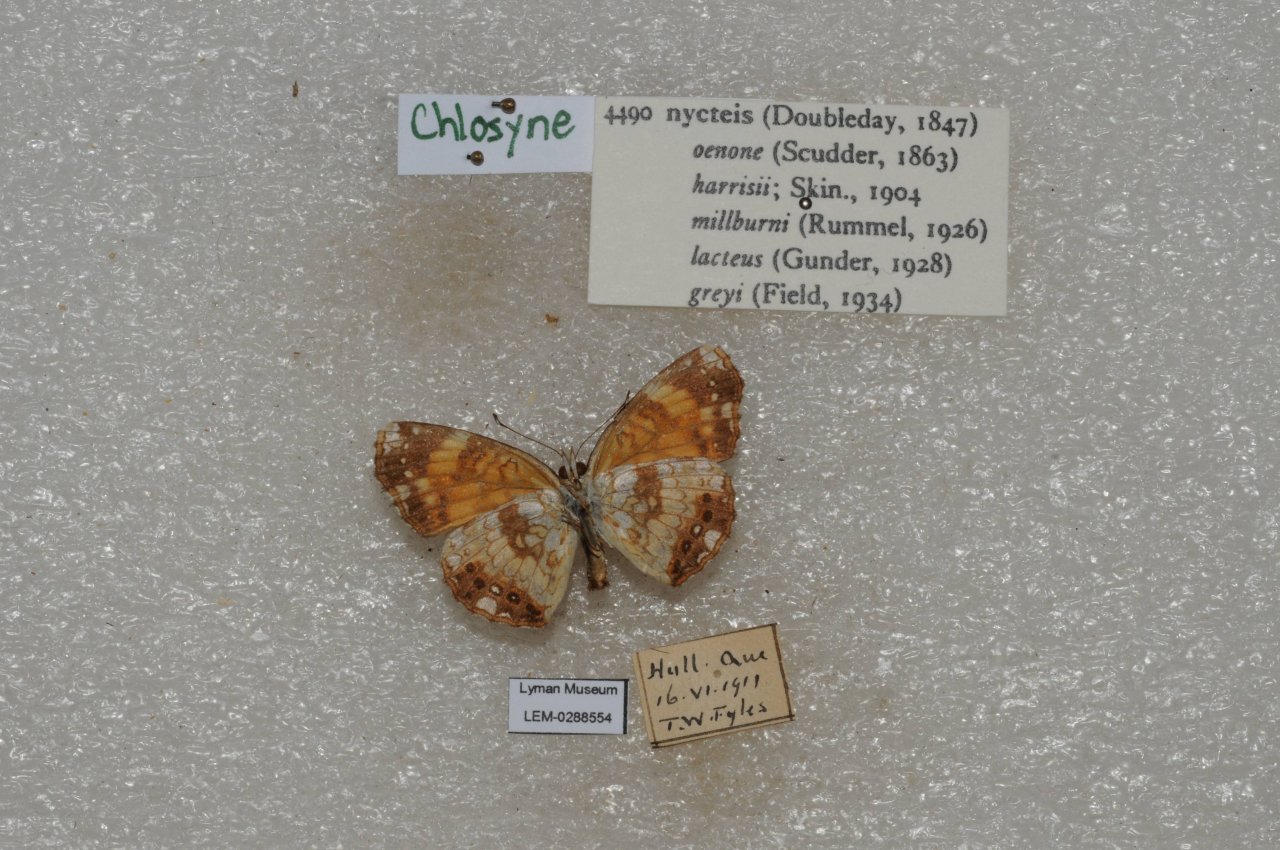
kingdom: Animalia
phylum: Arthropoda
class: Insecta
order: Lepidoptera
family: Nymphalidae
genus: Chlosyne
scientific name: Chlosyne nycteis
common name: Silvery Checkerspot
